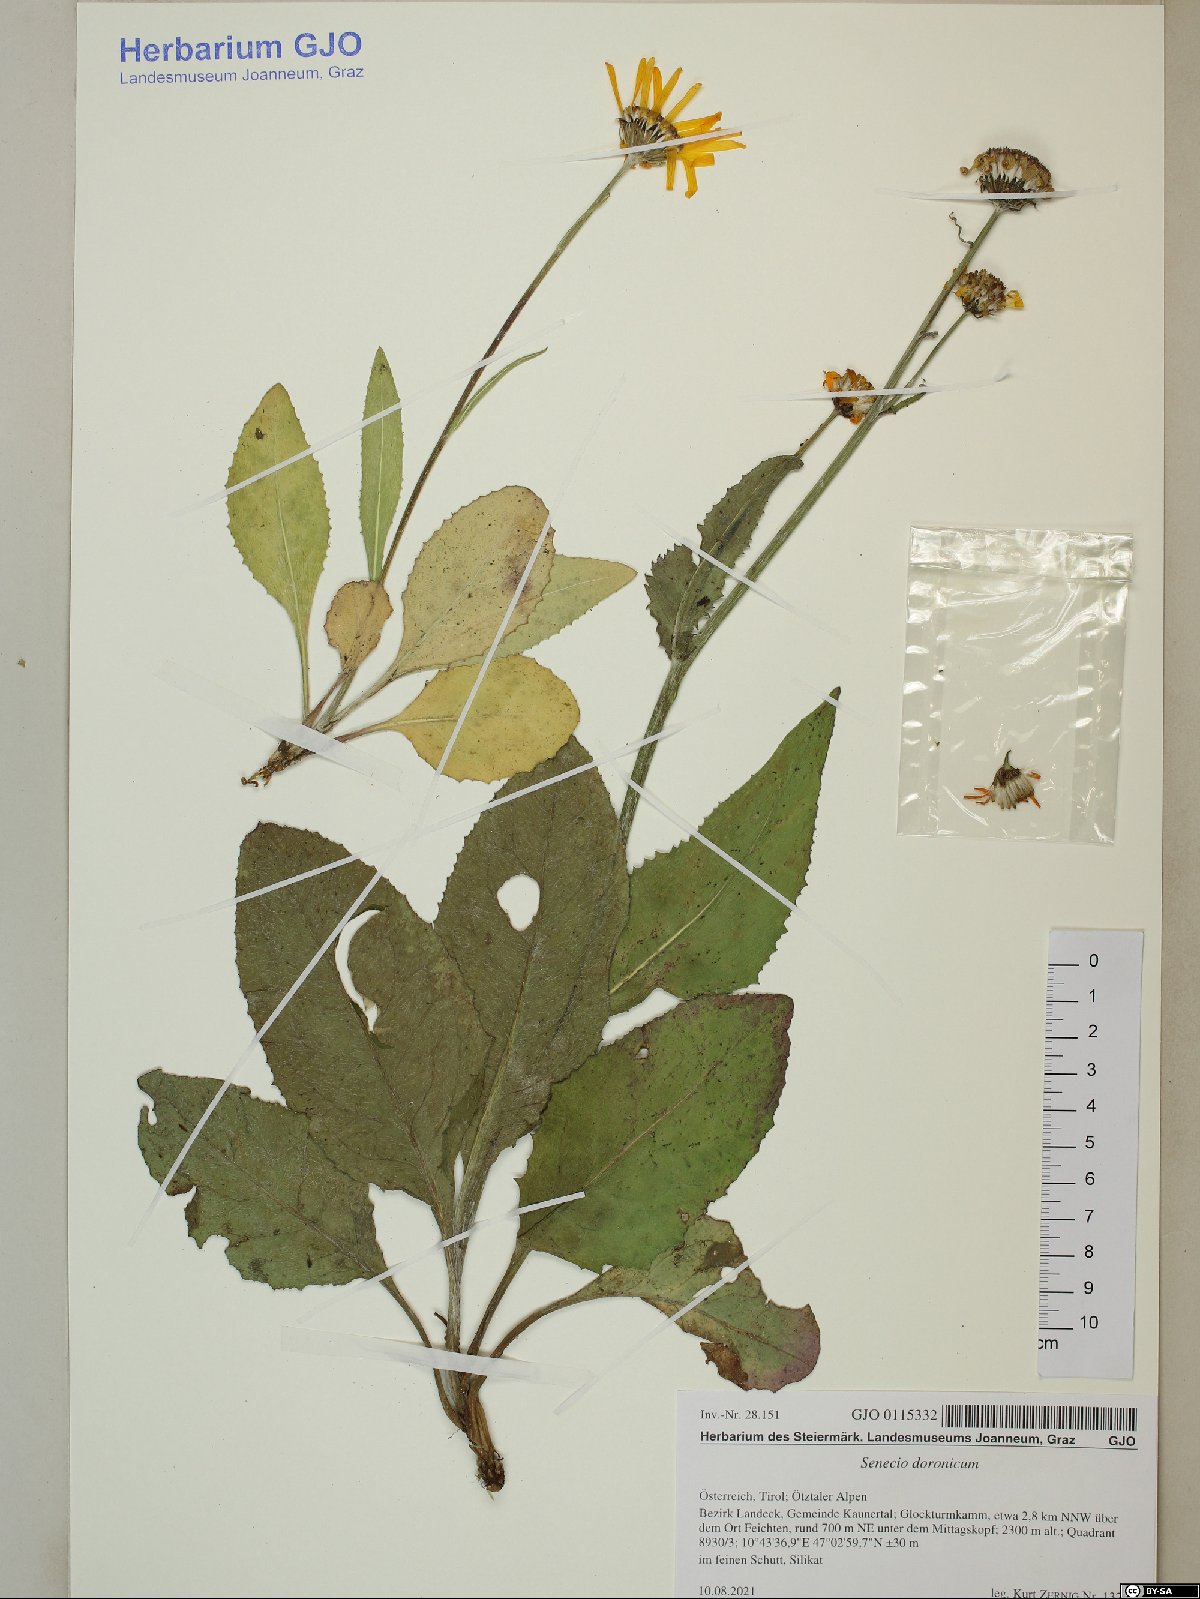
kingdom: Plantae
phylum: Tracheophyta
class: Magnoliopsida
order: Asterales
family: Asteraceae
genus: Senecio
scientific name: Senecio doronicum
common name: Chamois ragwort
